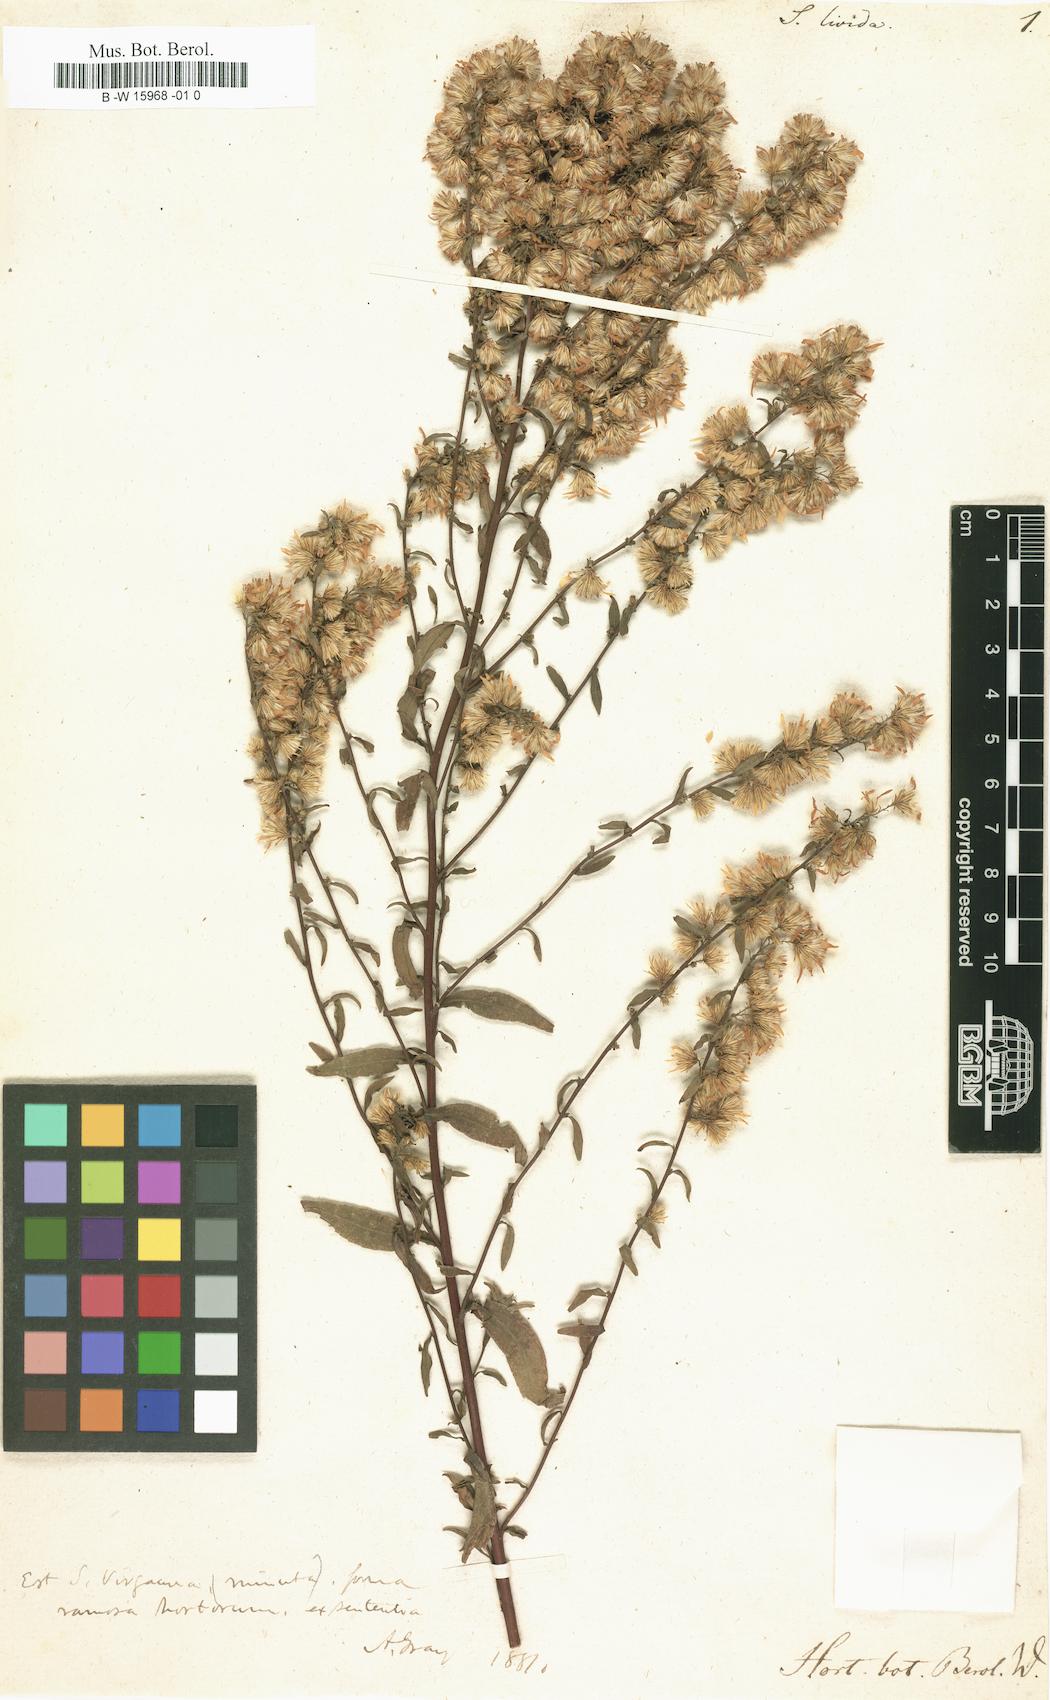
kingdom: Plantae
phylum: Tracheophyta
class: Magnoliopsida
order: Asterales
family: Asteraceae
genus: Solidago
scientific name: Solidago caesia
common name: Woodland goldenrod
